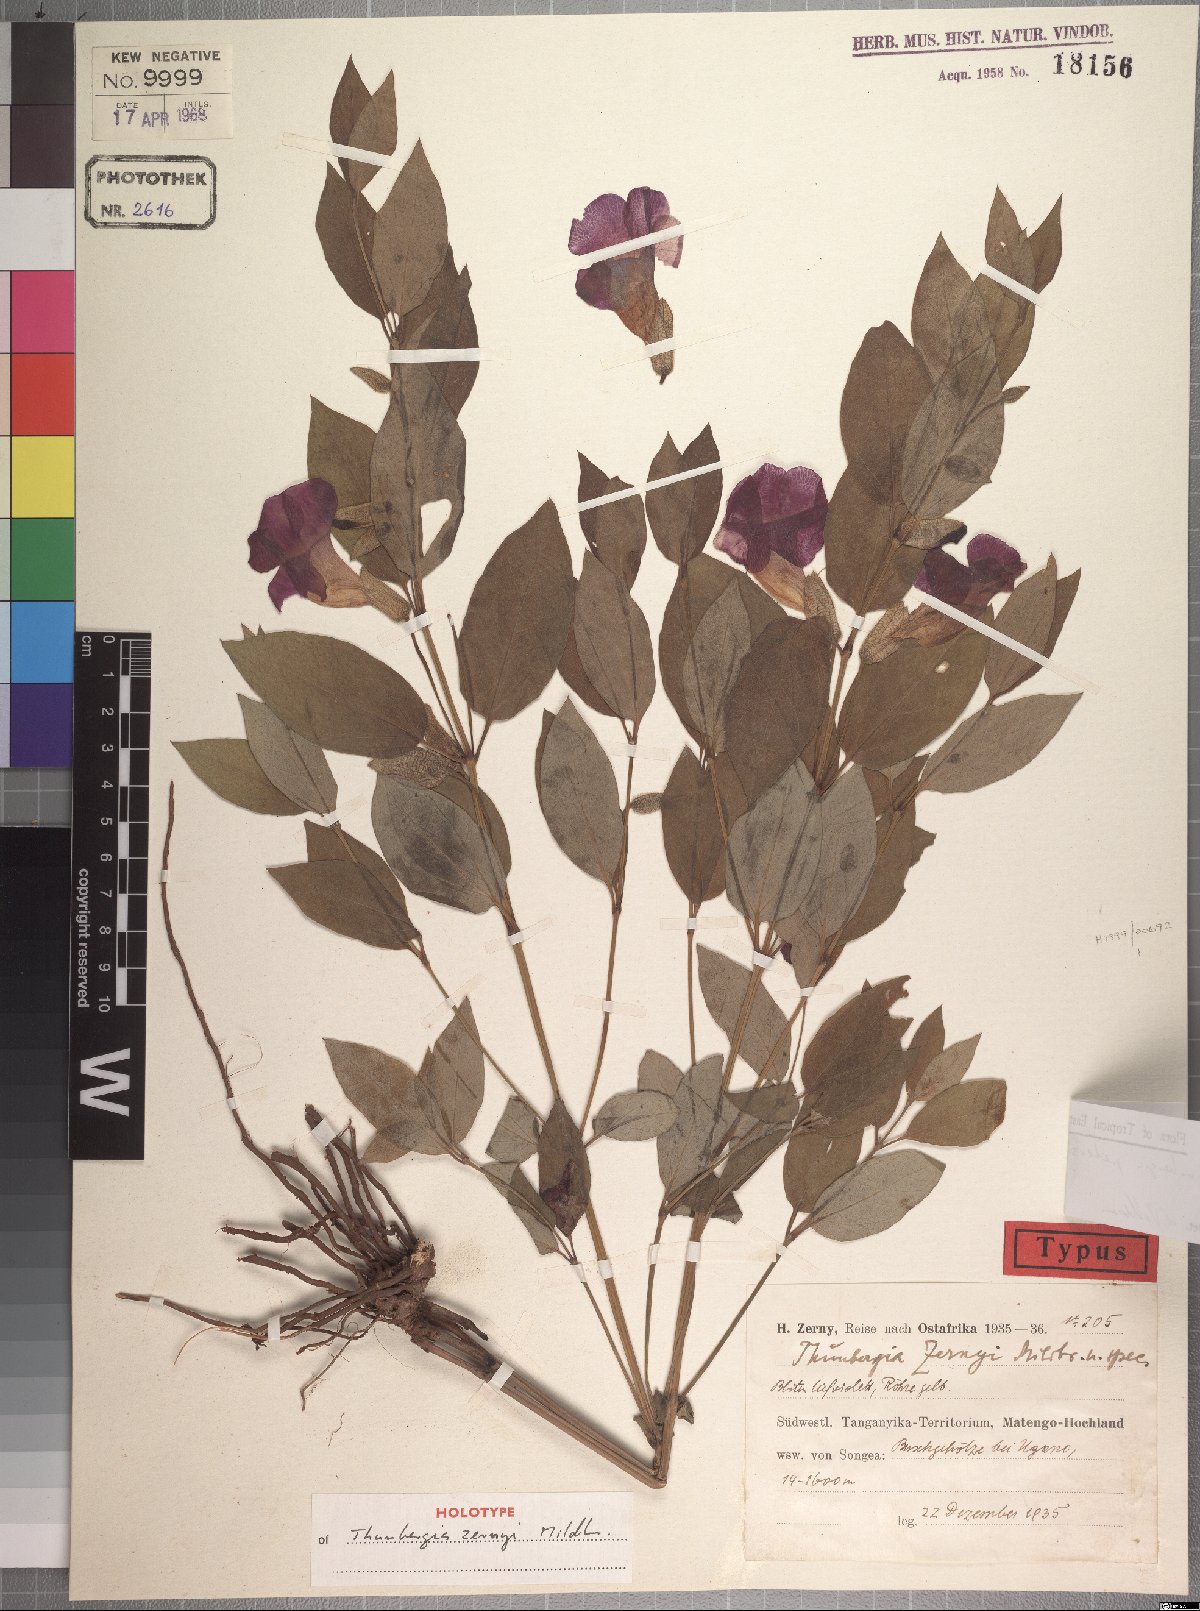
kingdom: Plantae
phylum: Tracheophyta
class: Magnoliopsida
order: Lamiales
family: Acanthaceae
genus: Thunbergia
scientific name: Thunbergia petersiana
